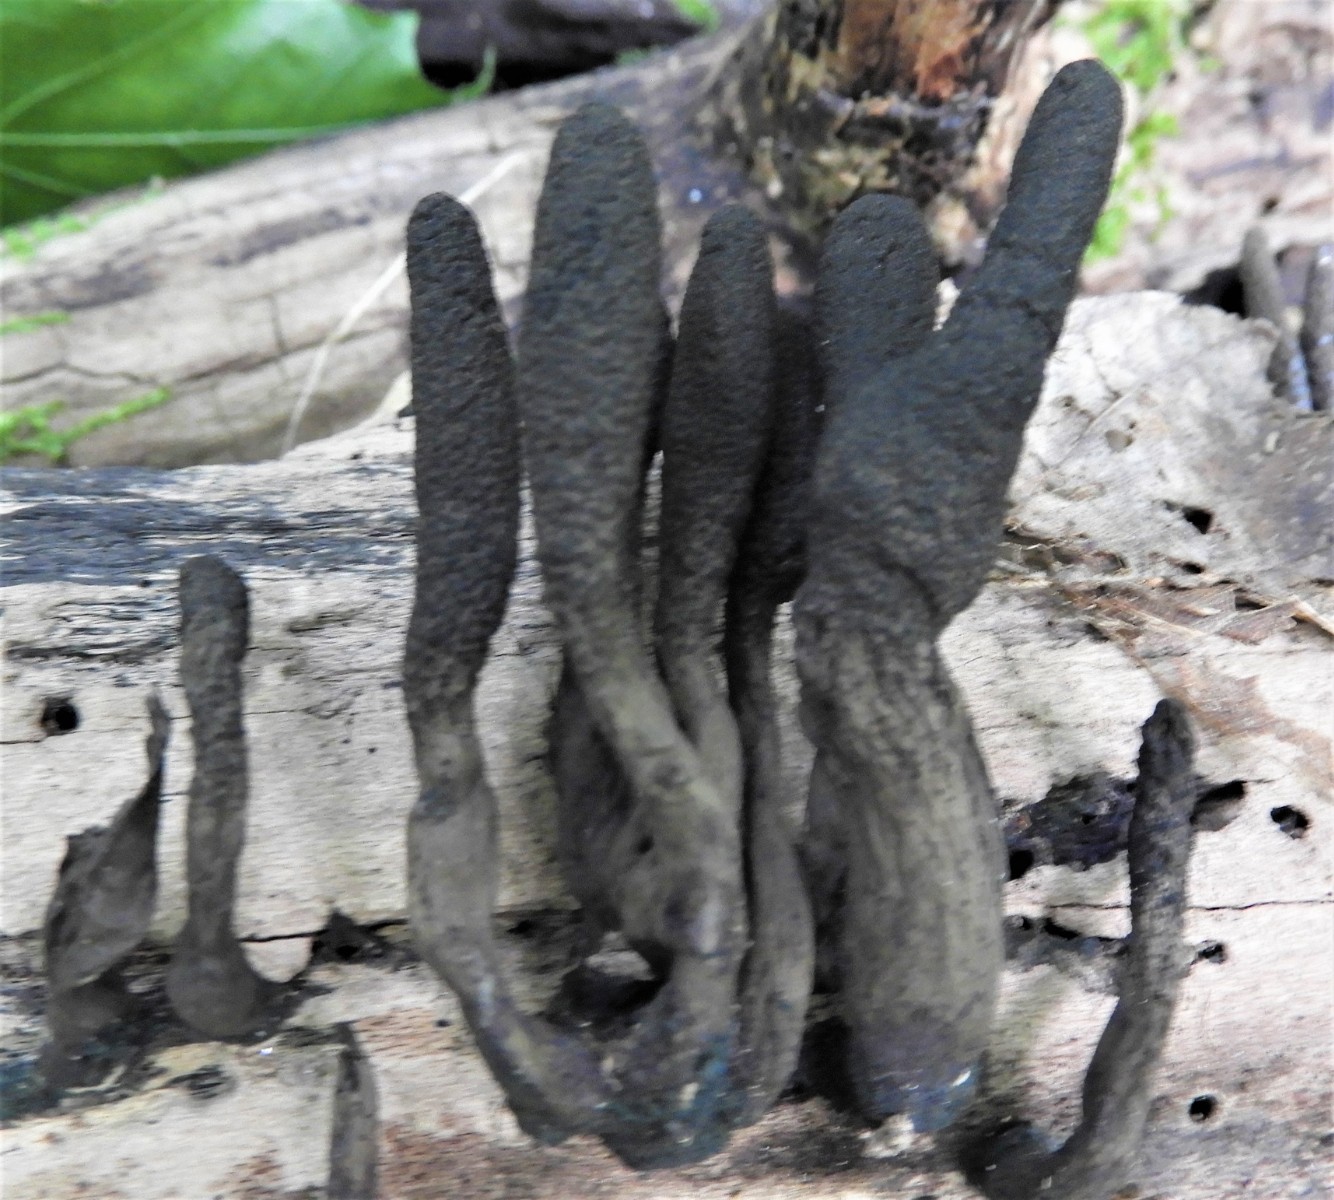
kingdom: Fungi
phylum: Ascomycota
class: Sordariomycetes
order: Xylariales
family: Xylariaceae
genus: Xylaria
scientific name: Xylaria longipes
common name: slank stødsvamp
